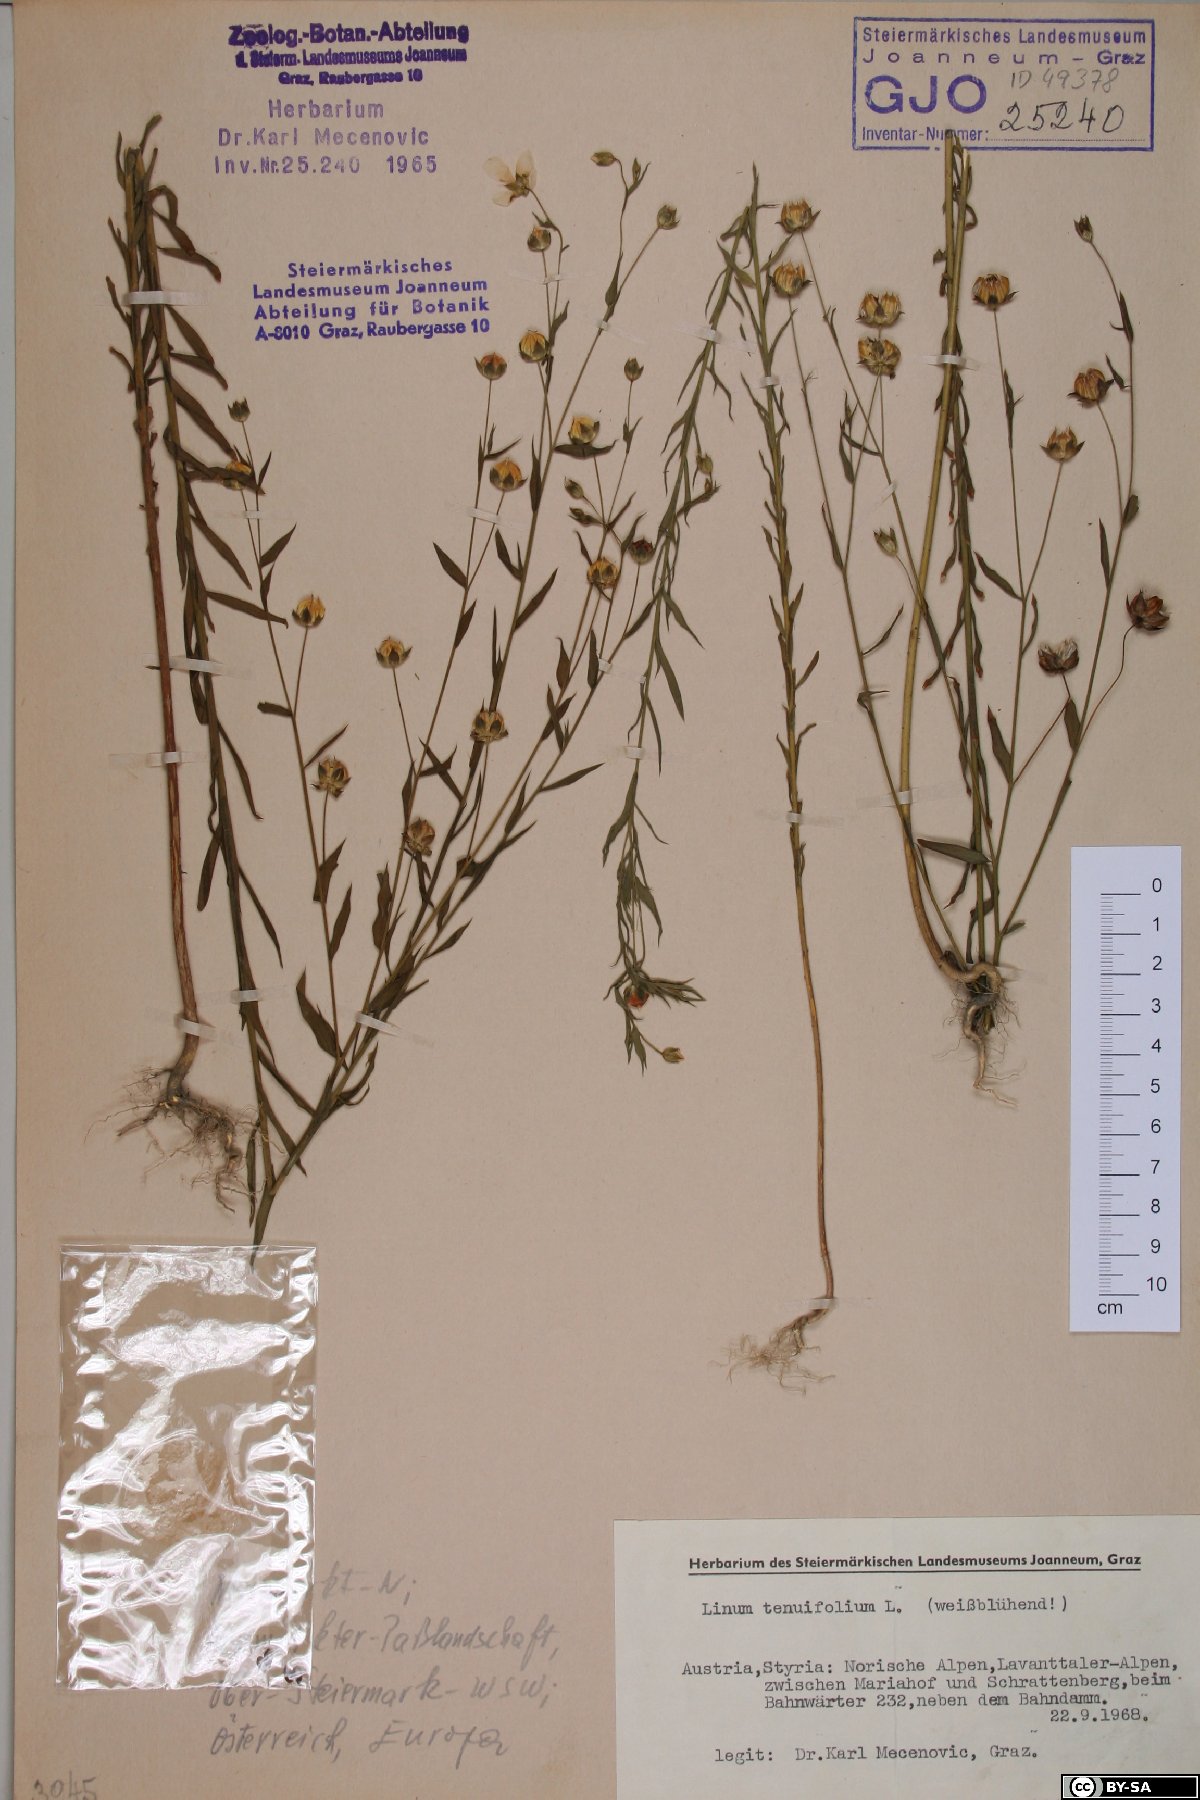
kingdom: Plantae
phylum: Tracheophyta
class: Magnoliopsida
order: Malpighiales
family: Linaceae
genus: Linum
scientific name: Linum usitatissimum
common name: Flax
